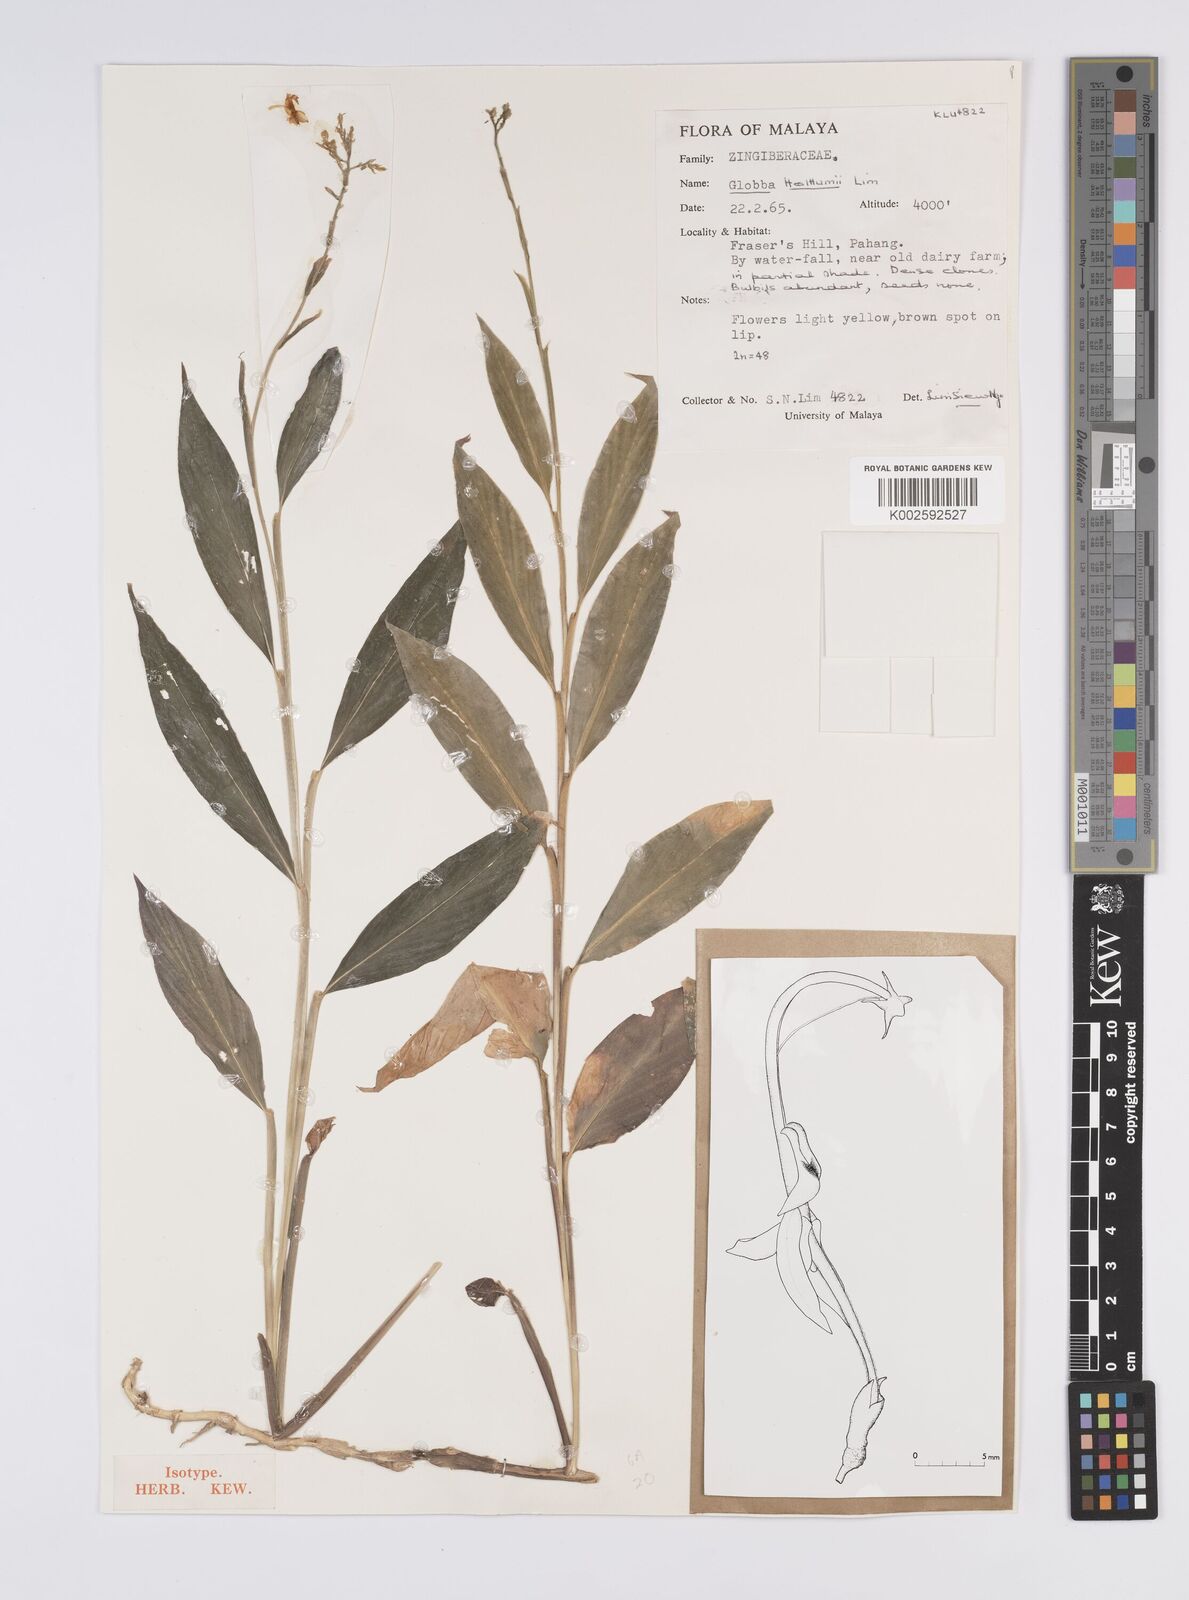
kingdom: Plantae
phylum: Tracheophyta
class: Liliopsida
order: Zingiberales
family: Zingiberaceae
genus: Globba
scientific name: Globba holttumii
